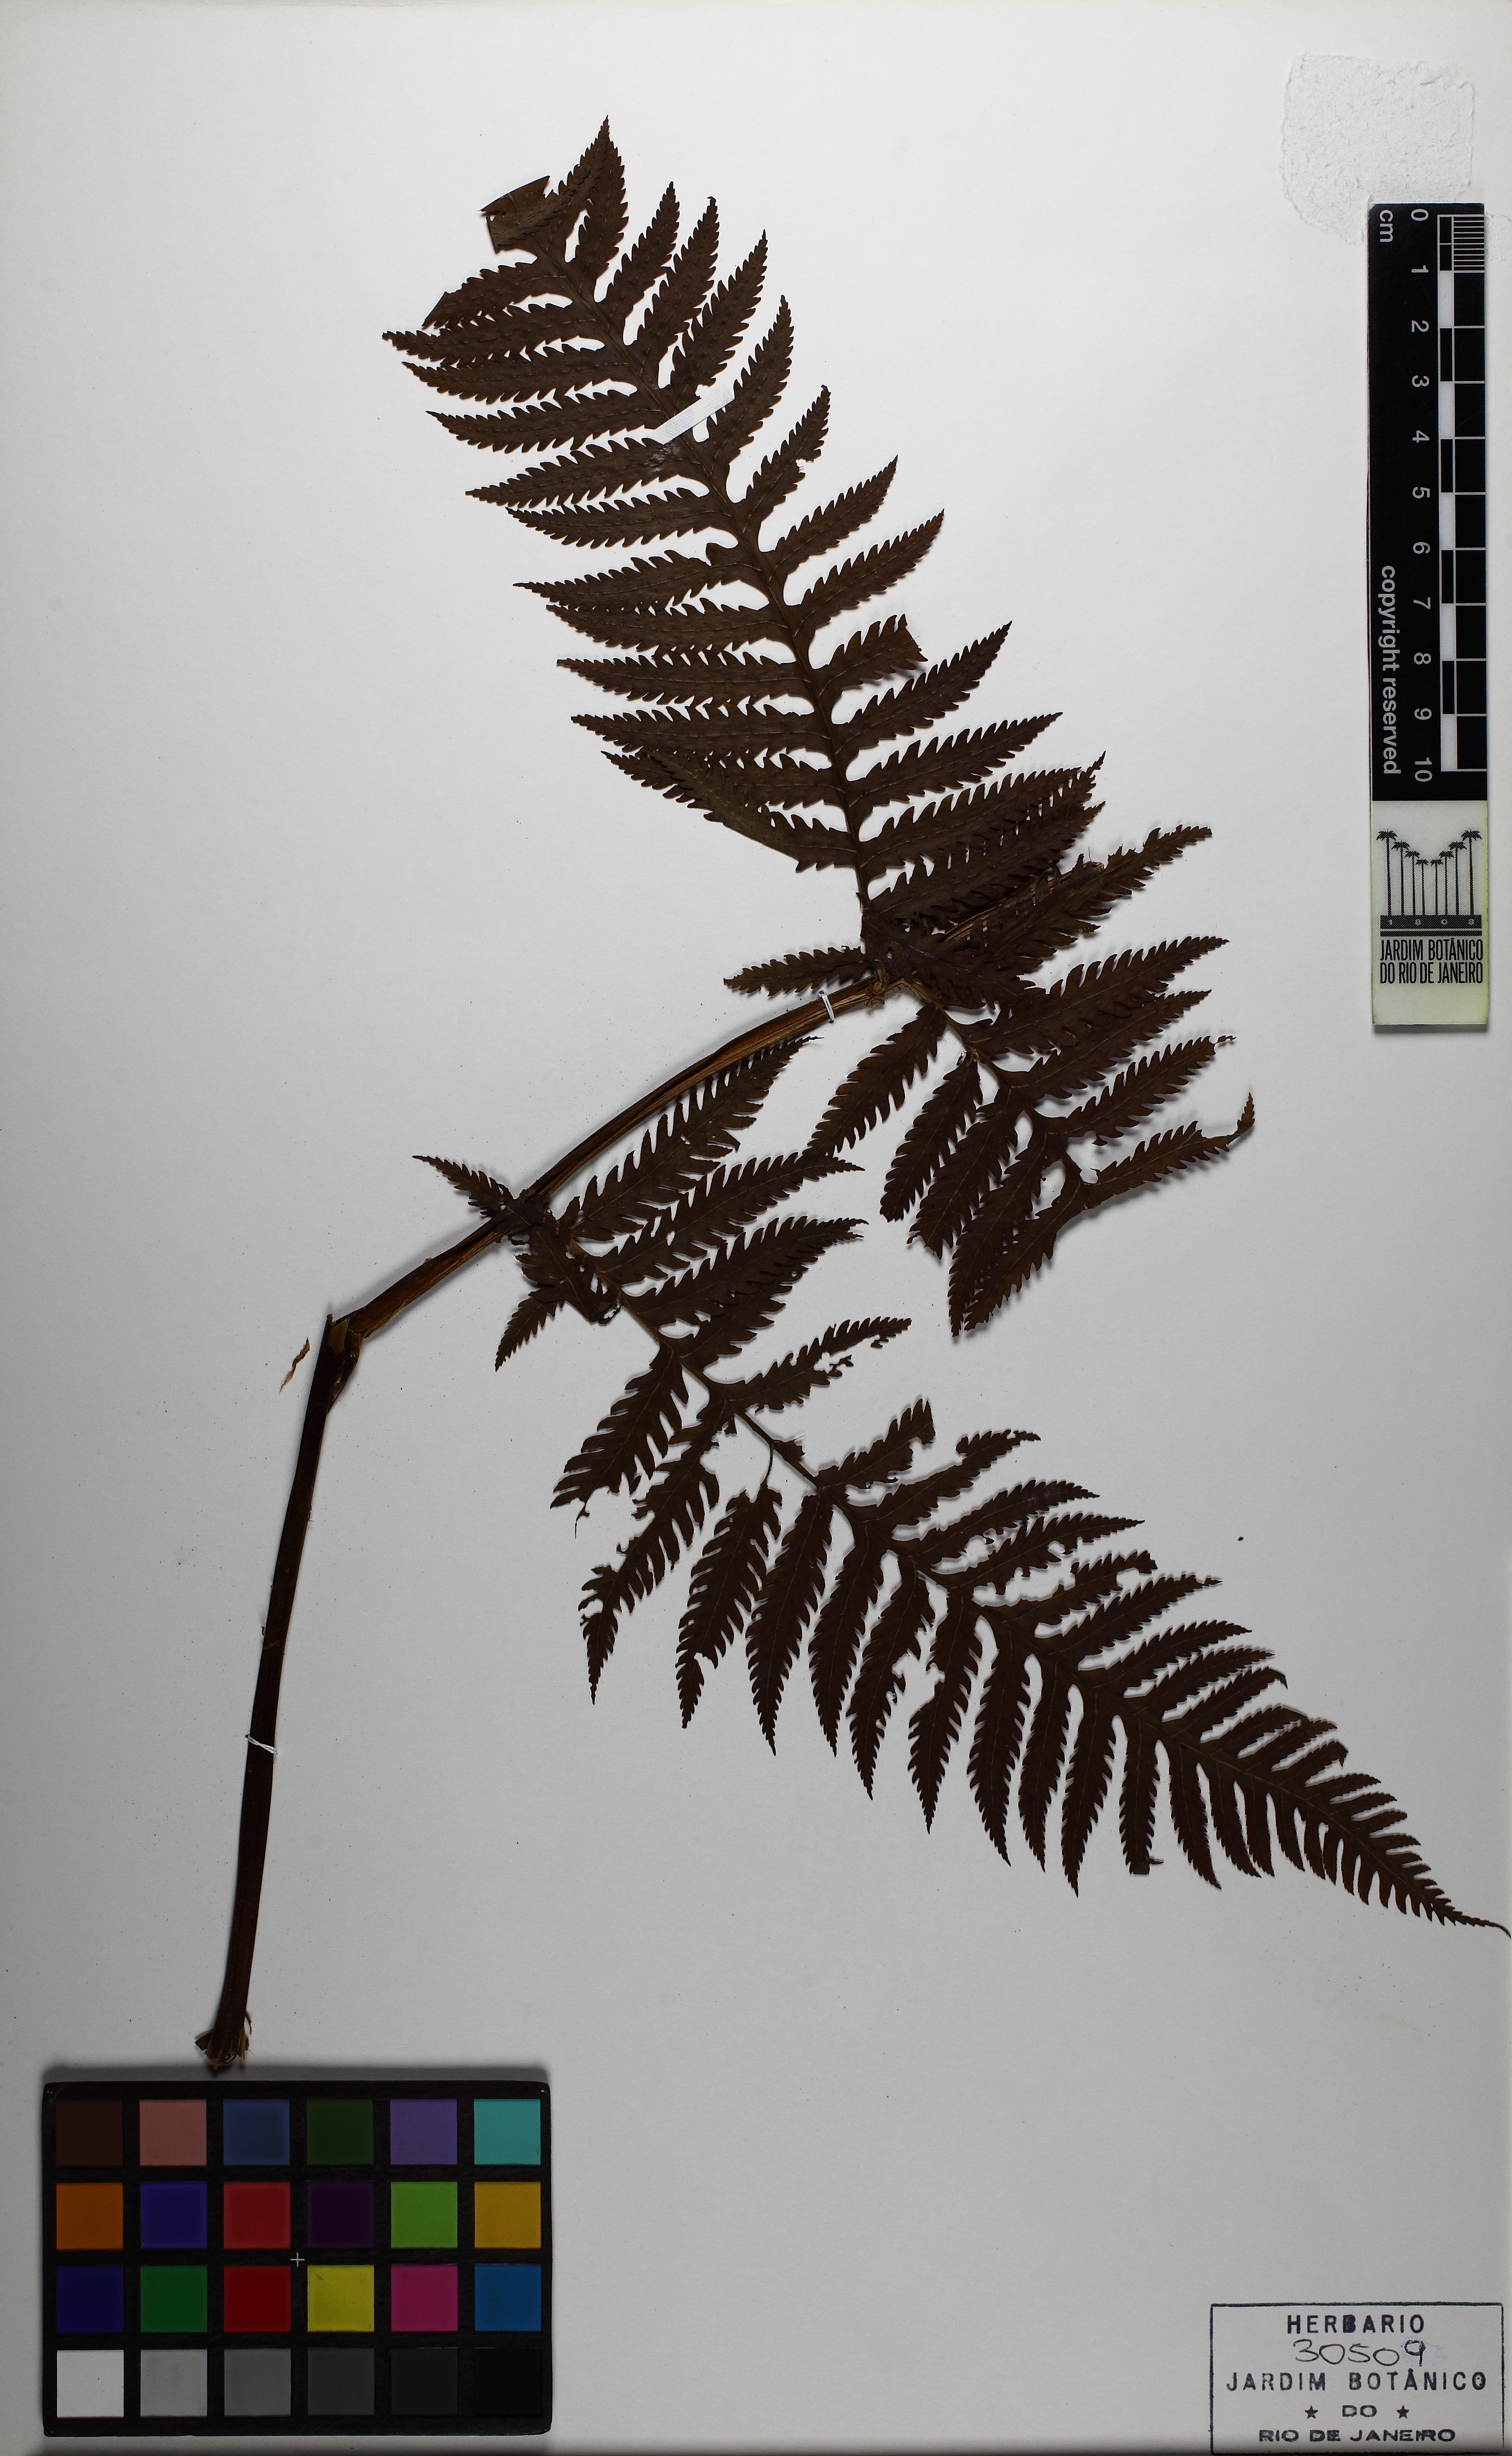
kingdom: Plantae
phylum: Tracheophyta
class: Polypodiopsida
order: Polypodiales
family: Dryopteridaceae
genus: Stigmatopteris
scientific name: Stigmatopteris caudata
